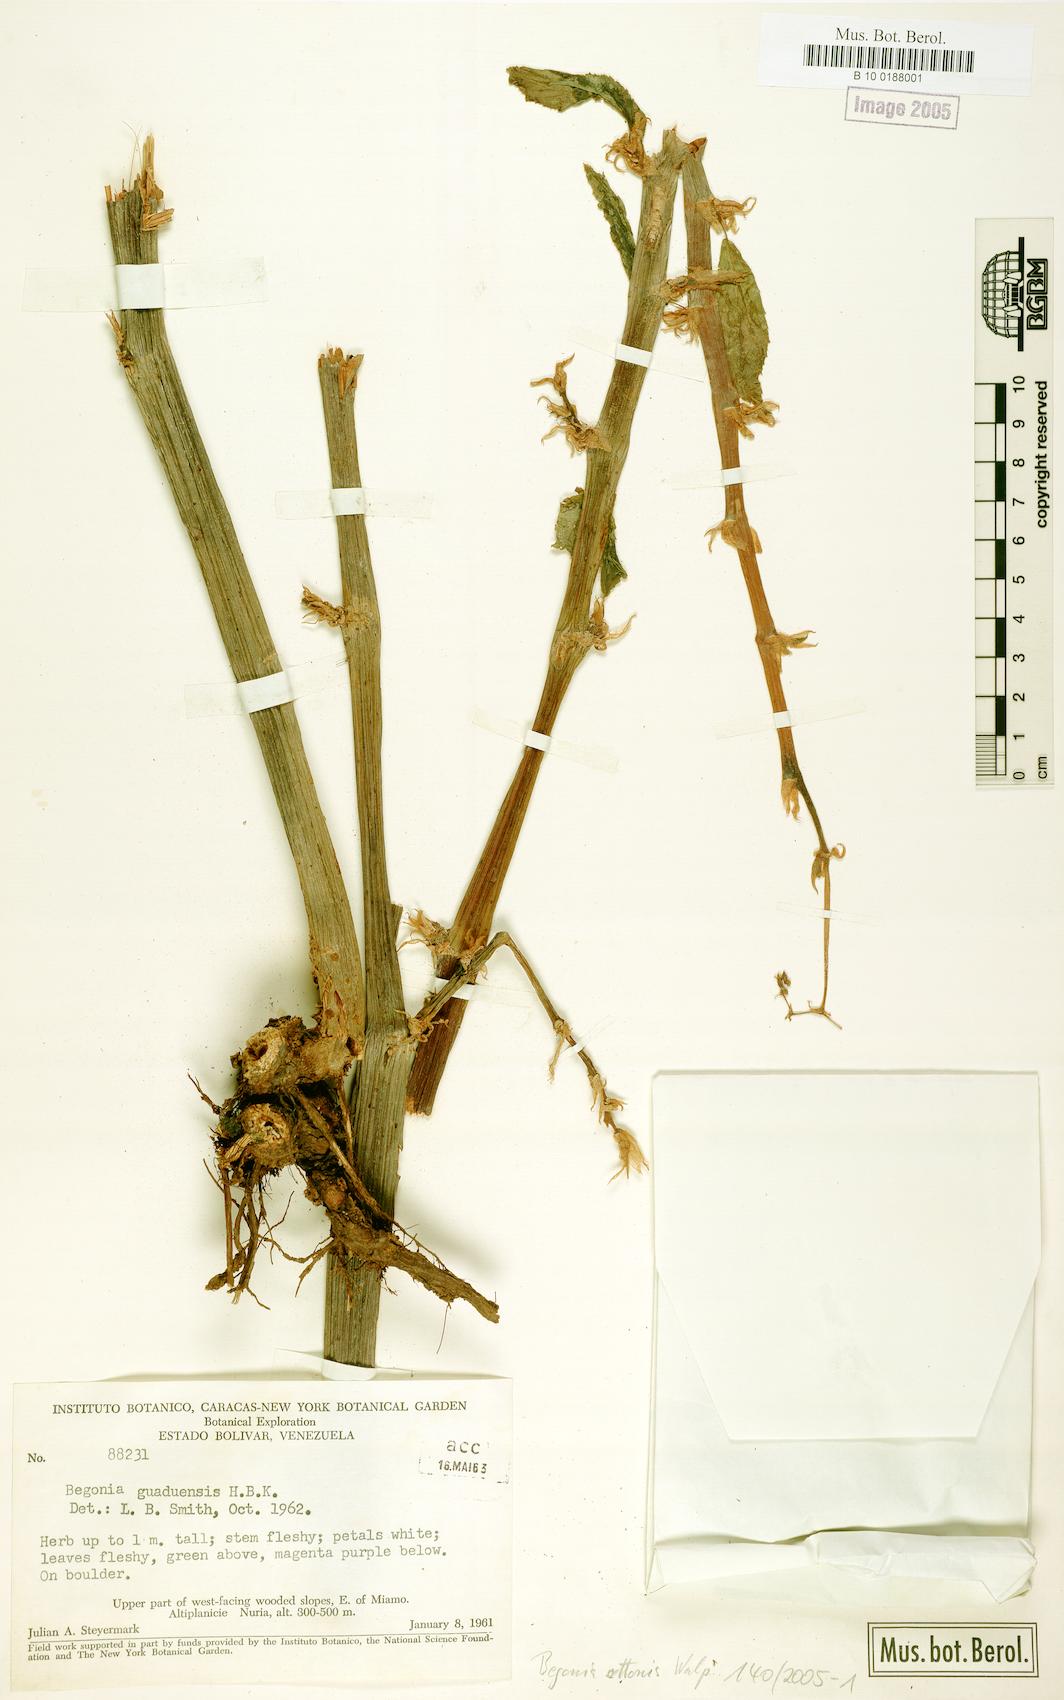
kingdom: Plantae
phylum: Tracheophyta
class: Magnoliopsida
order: Cucurbitales
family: Begoniaceae
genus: Begonia
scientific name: Begonia guaduensis
